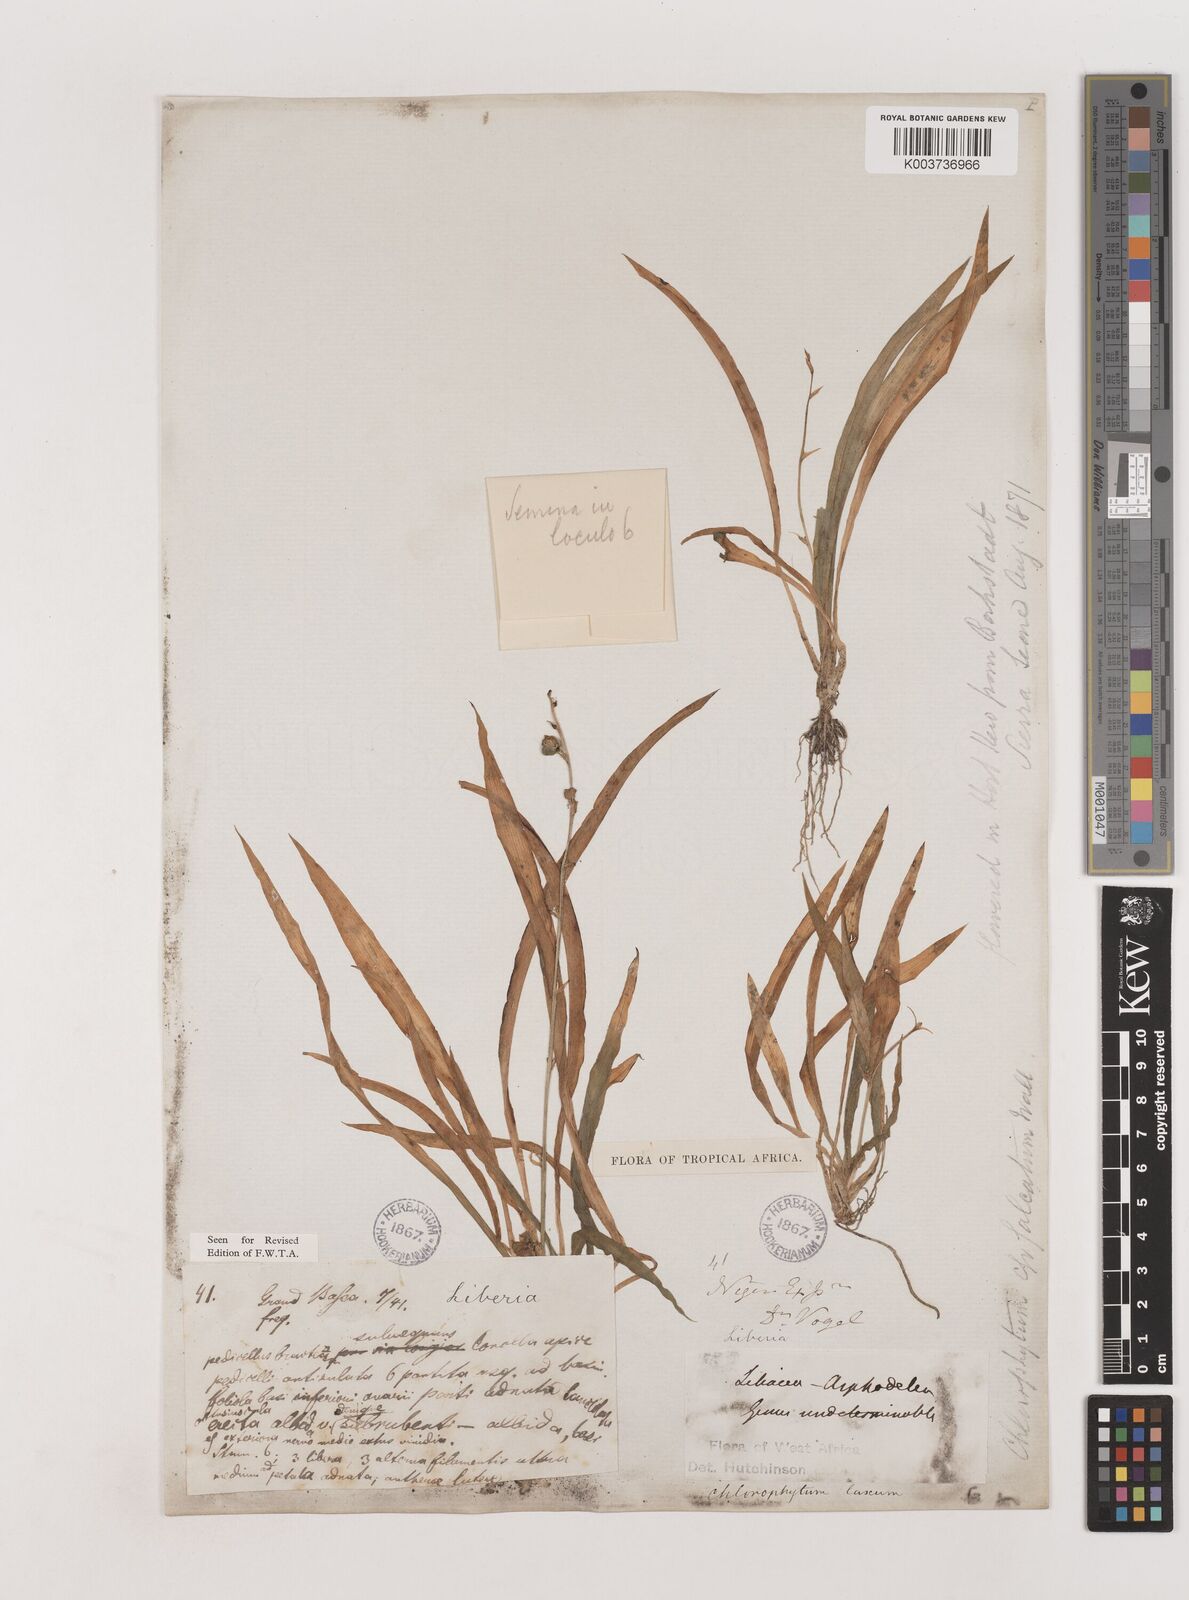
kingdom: Plantae
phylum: Tracheophyta
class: Liliopsida
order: Asparagales
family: Asparagaceae
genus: Chlorophytum
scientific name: Chlorophytum laxum
